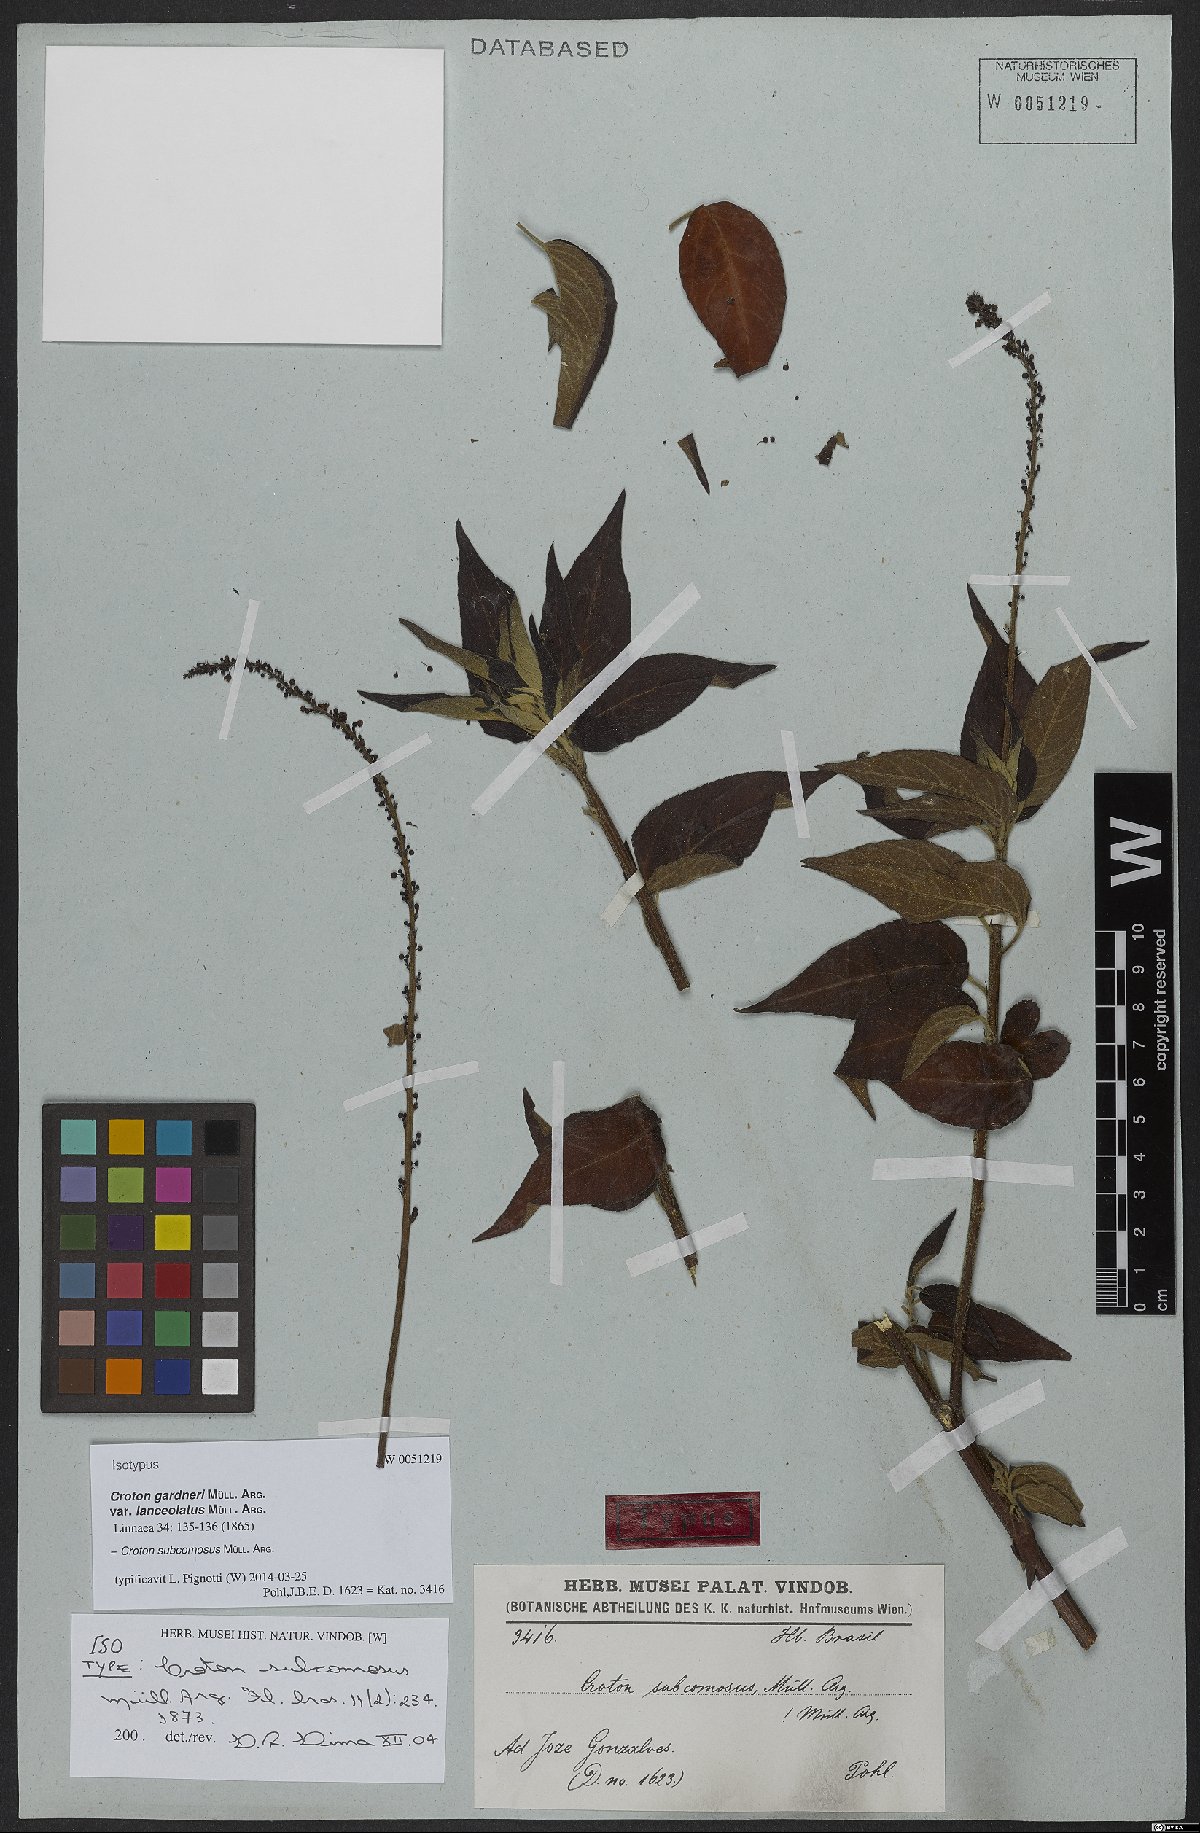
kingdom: Plantae
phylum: Tracheophyta
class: Magnoliopsida
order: Malpighiales
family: Euphorbiaceae
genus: Astraea
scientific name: Astraea subcomosa
